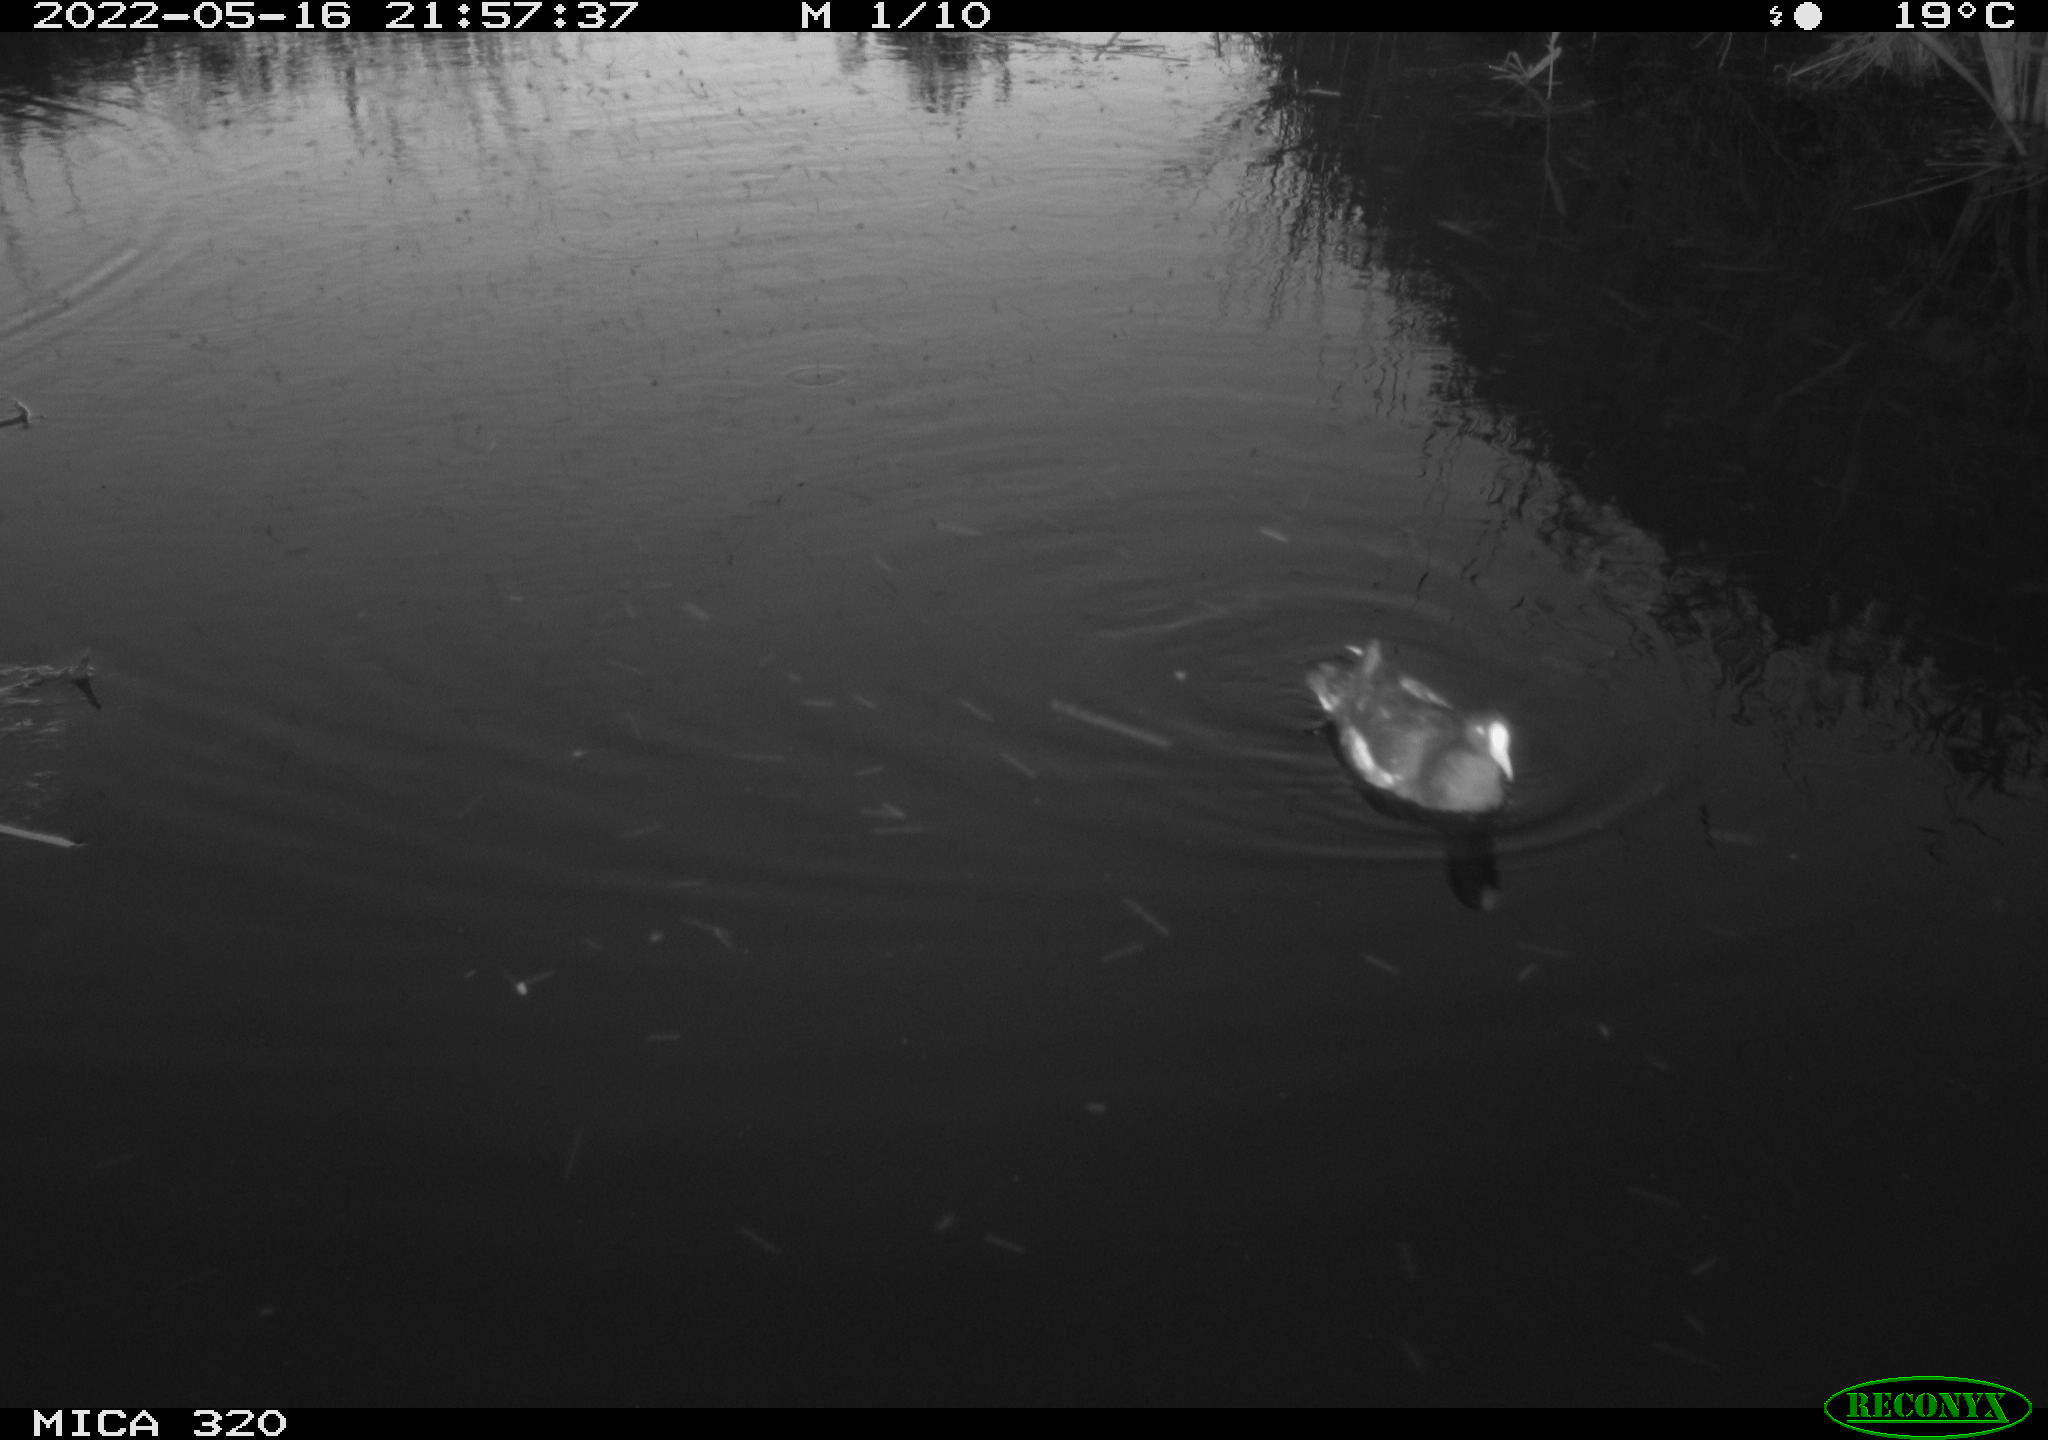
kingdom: Animalia
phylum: Chordata
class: Aves
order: Gruiformes
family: Rallidae
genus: Gallinula
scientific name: Gallinula chloropus
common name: Common moorhen
